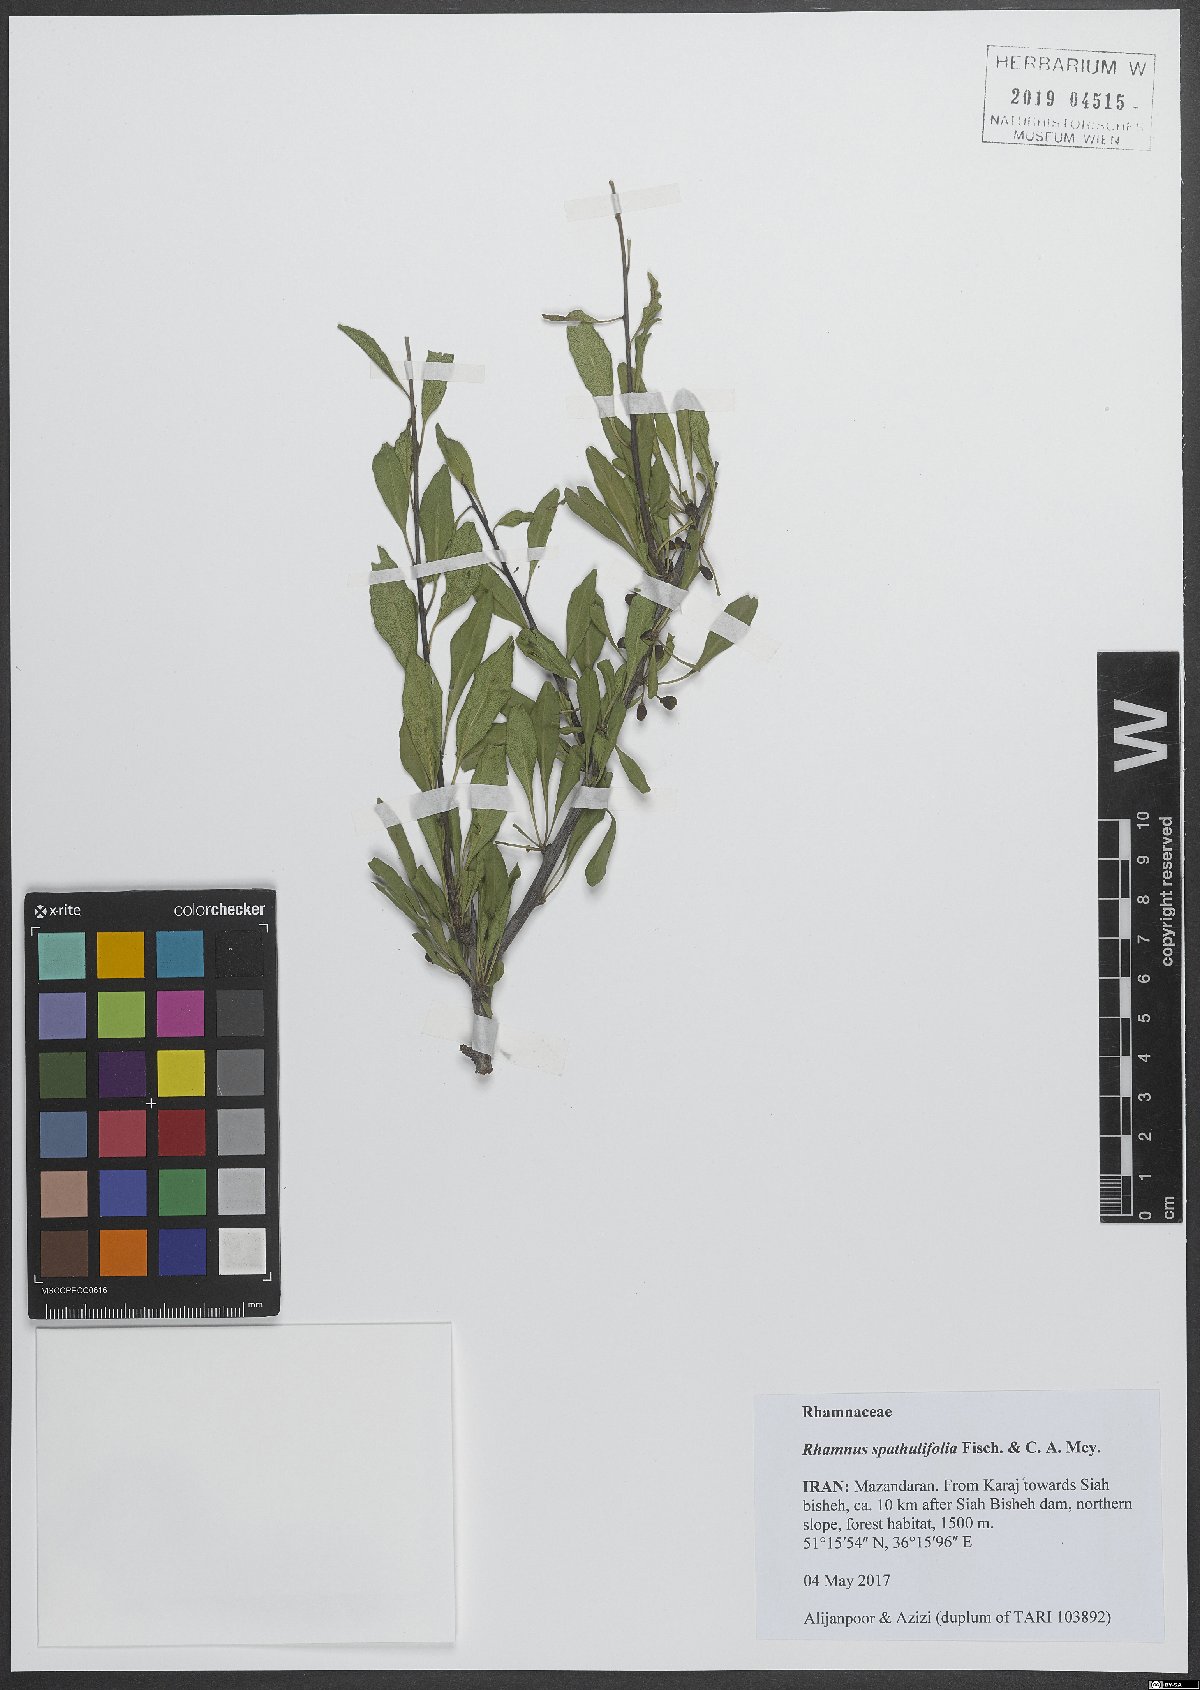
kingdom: Plantae
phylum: Tracheophyta
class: Magnoliopsida
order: Rosales
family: Rhamnaceae
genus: Rhamnus
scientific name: Rhamnus spathulifolia
